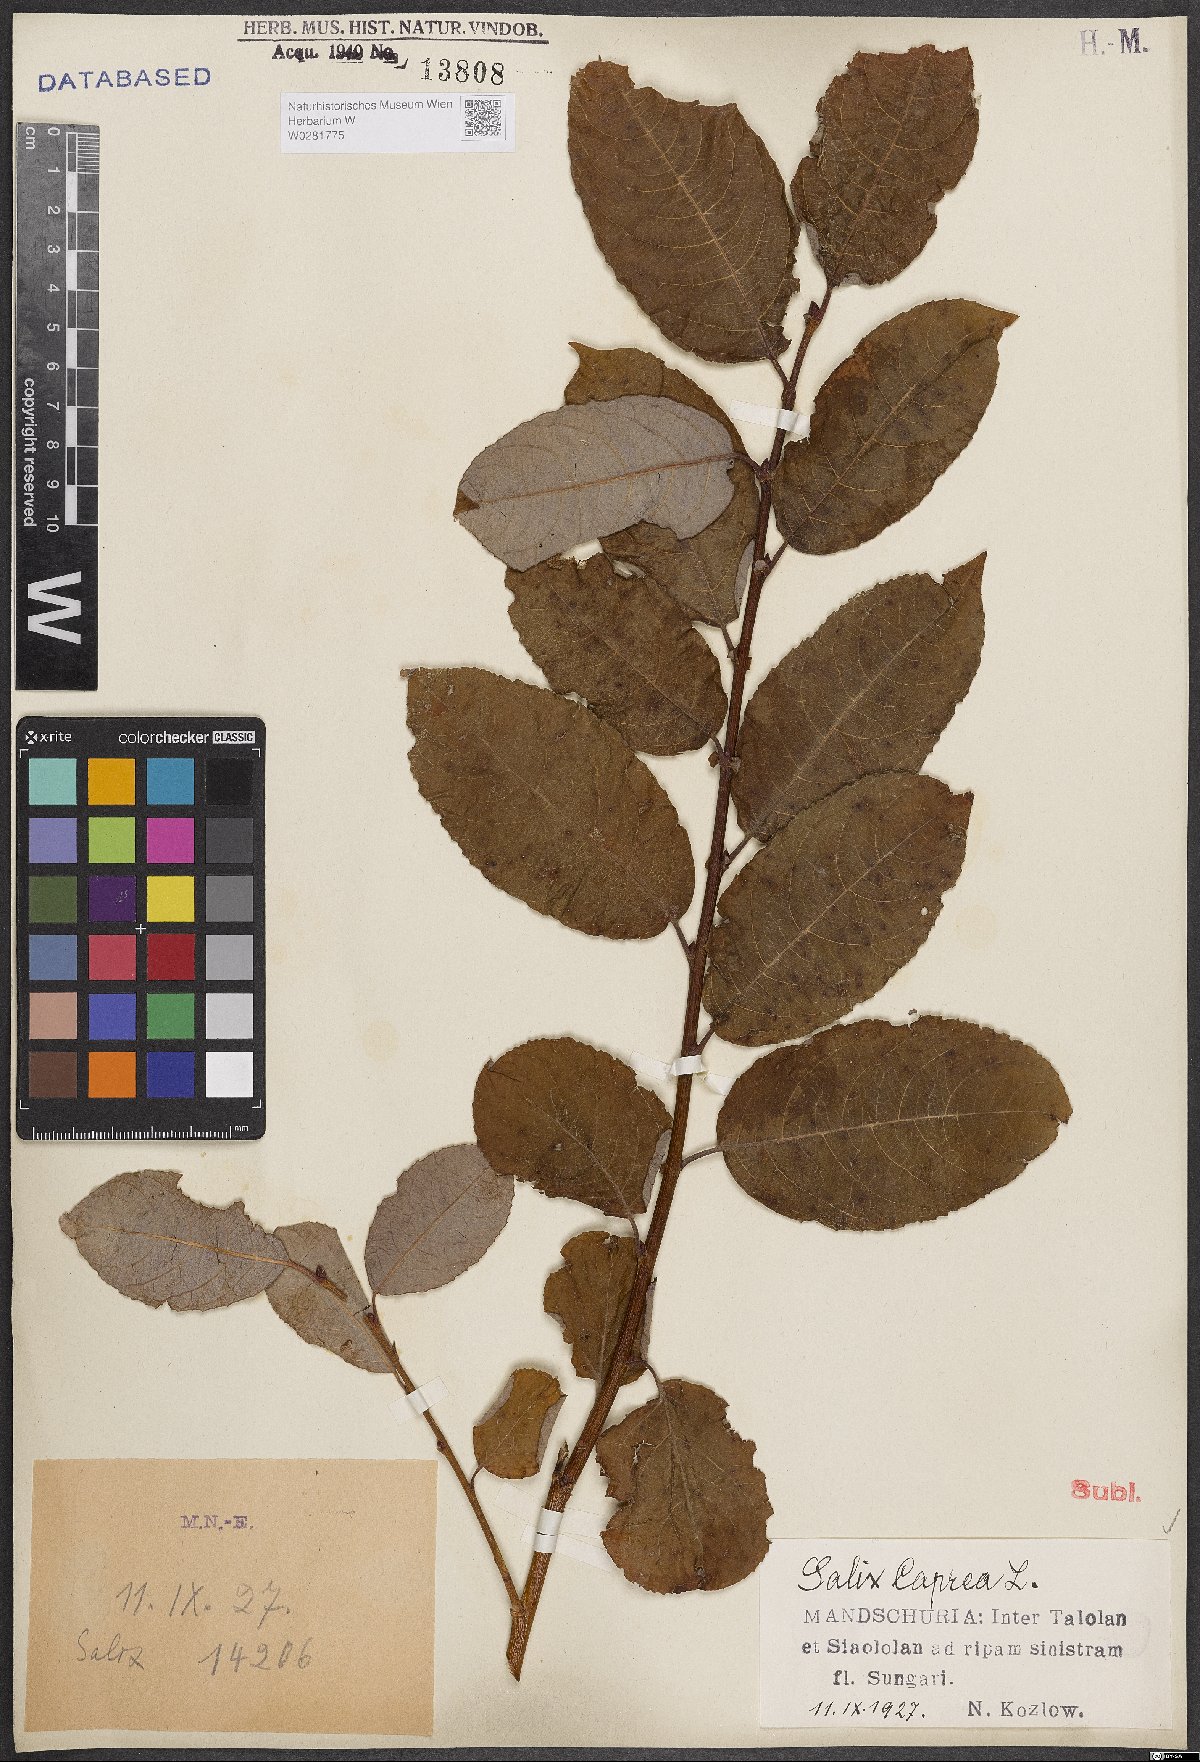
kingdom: Plantae
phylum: Tracheophyta
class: Magnoliopsida
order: Malpighiales
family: Salicaceae
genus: Salix
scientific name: Salix caprea
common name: Goat willow
